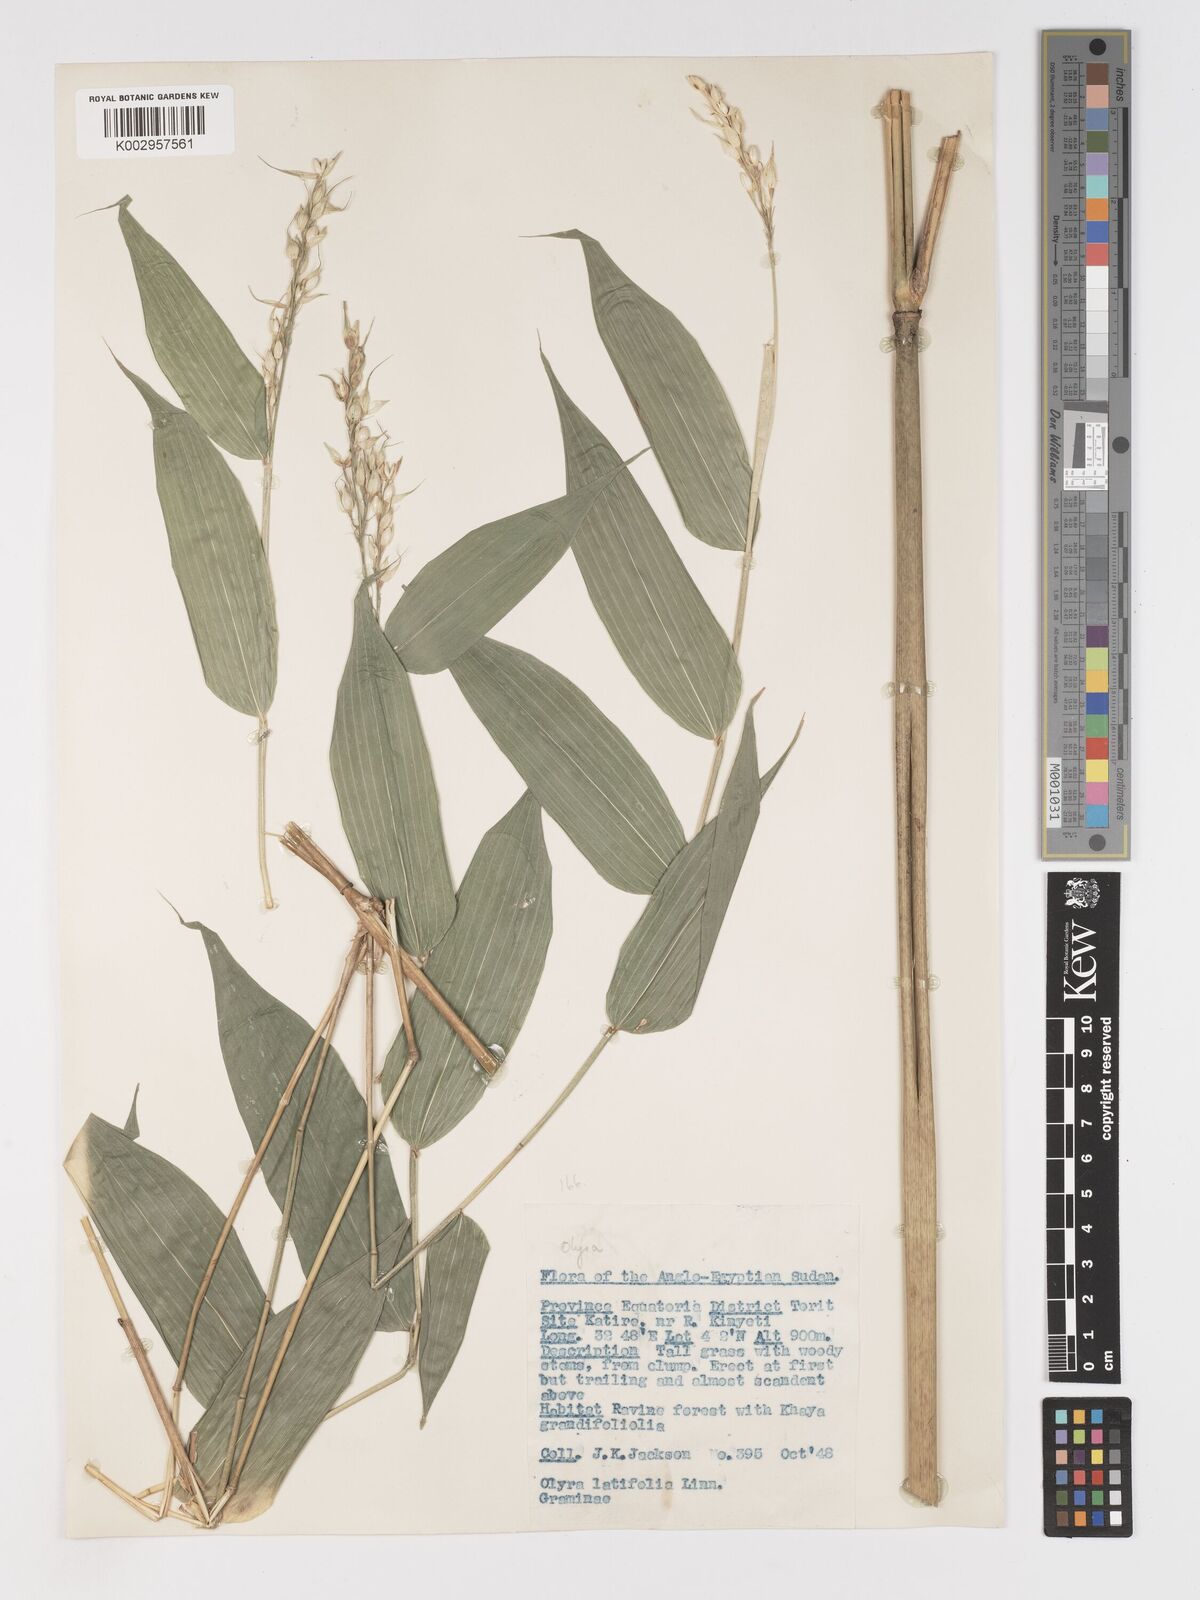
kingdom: Plantae
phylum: Tracheophyta
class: Liliopsida
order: Poales
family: Poaceae
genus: Olyra
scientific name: Olyra latifolia
